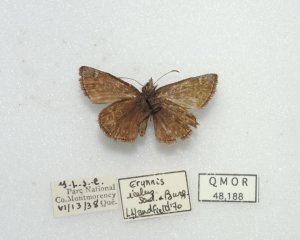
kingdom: Animalia
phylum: Arthropoda
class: Insecta
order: Lepidoptera
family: Hesperiidae
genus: Erynnis
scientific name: Erynnis icelus
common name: Dreamy Duskywing
